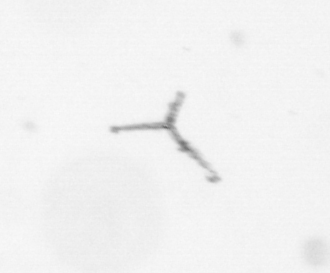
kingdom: Chromista
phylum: Ochrophyta
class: Bacillariophyceae
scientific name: Bacillariophyceae
